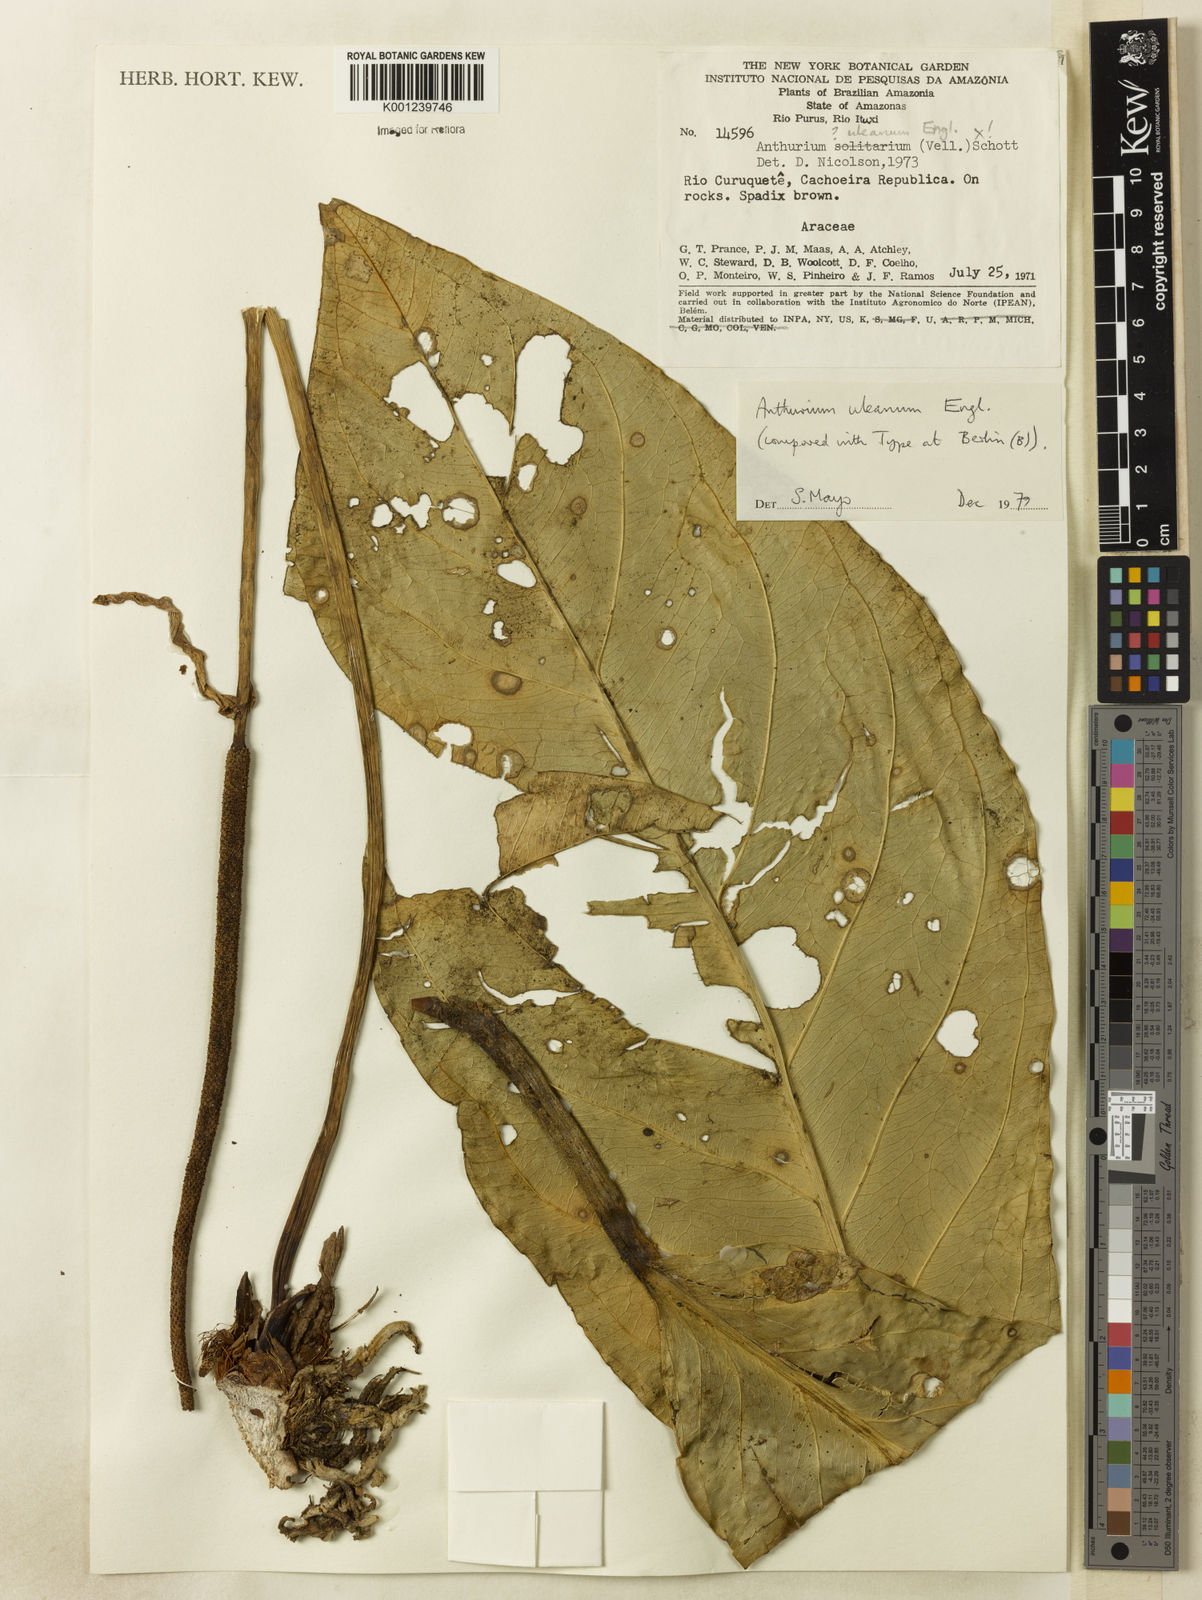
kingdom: Plantae
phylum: Tracheophyta
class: Liliopsida
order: Alismatales
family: Araceae
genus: Anthurium
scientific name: Anthurium uleanum
